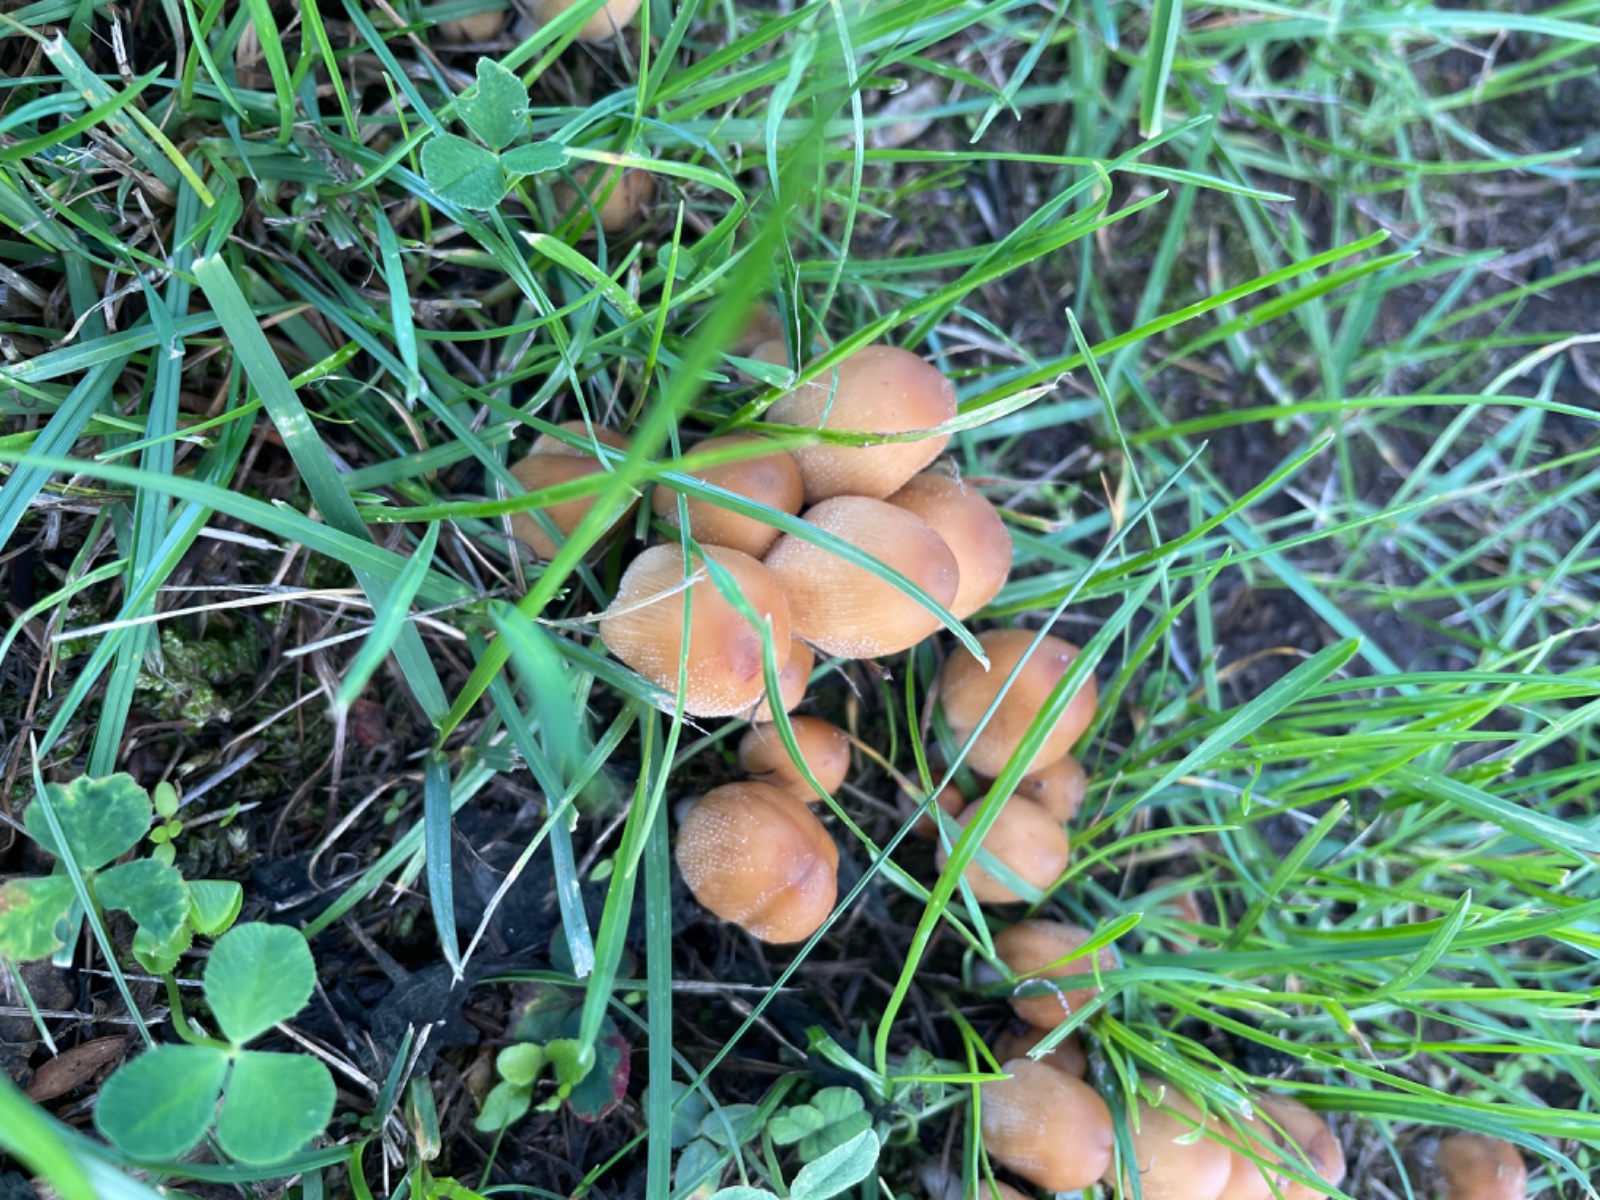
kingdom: Fungi
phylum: Basidiomycota
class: Agaricomycetes
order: Agaricales
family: Psathyrellaceae
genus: Coprinellus
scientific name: Coprinellus micaceus
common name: glimmer-blækhat
